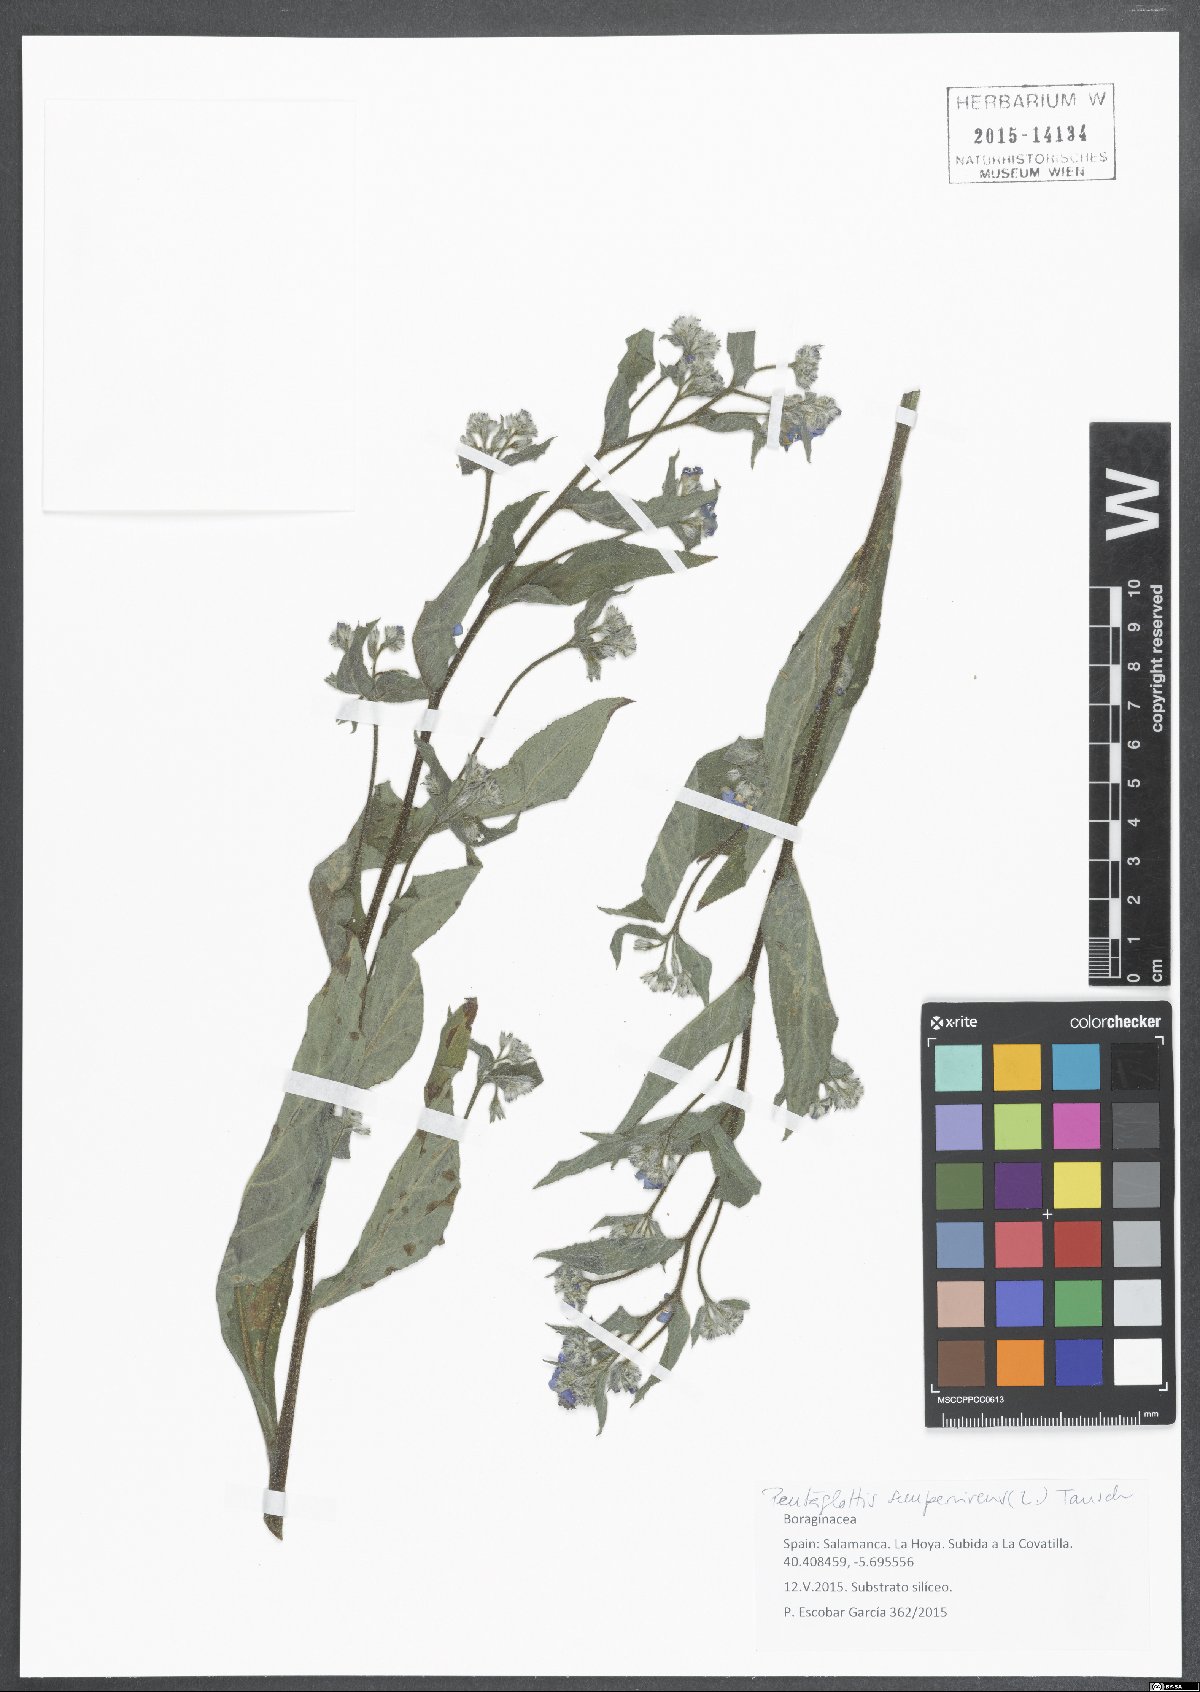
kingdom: Plantae
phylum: Tracheophyta
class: Magnoliopsida
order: Boraginales
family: Boraginaceae
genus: Pentaglottis
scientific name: Pentaglottis sempervirens
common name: Green alkanet
